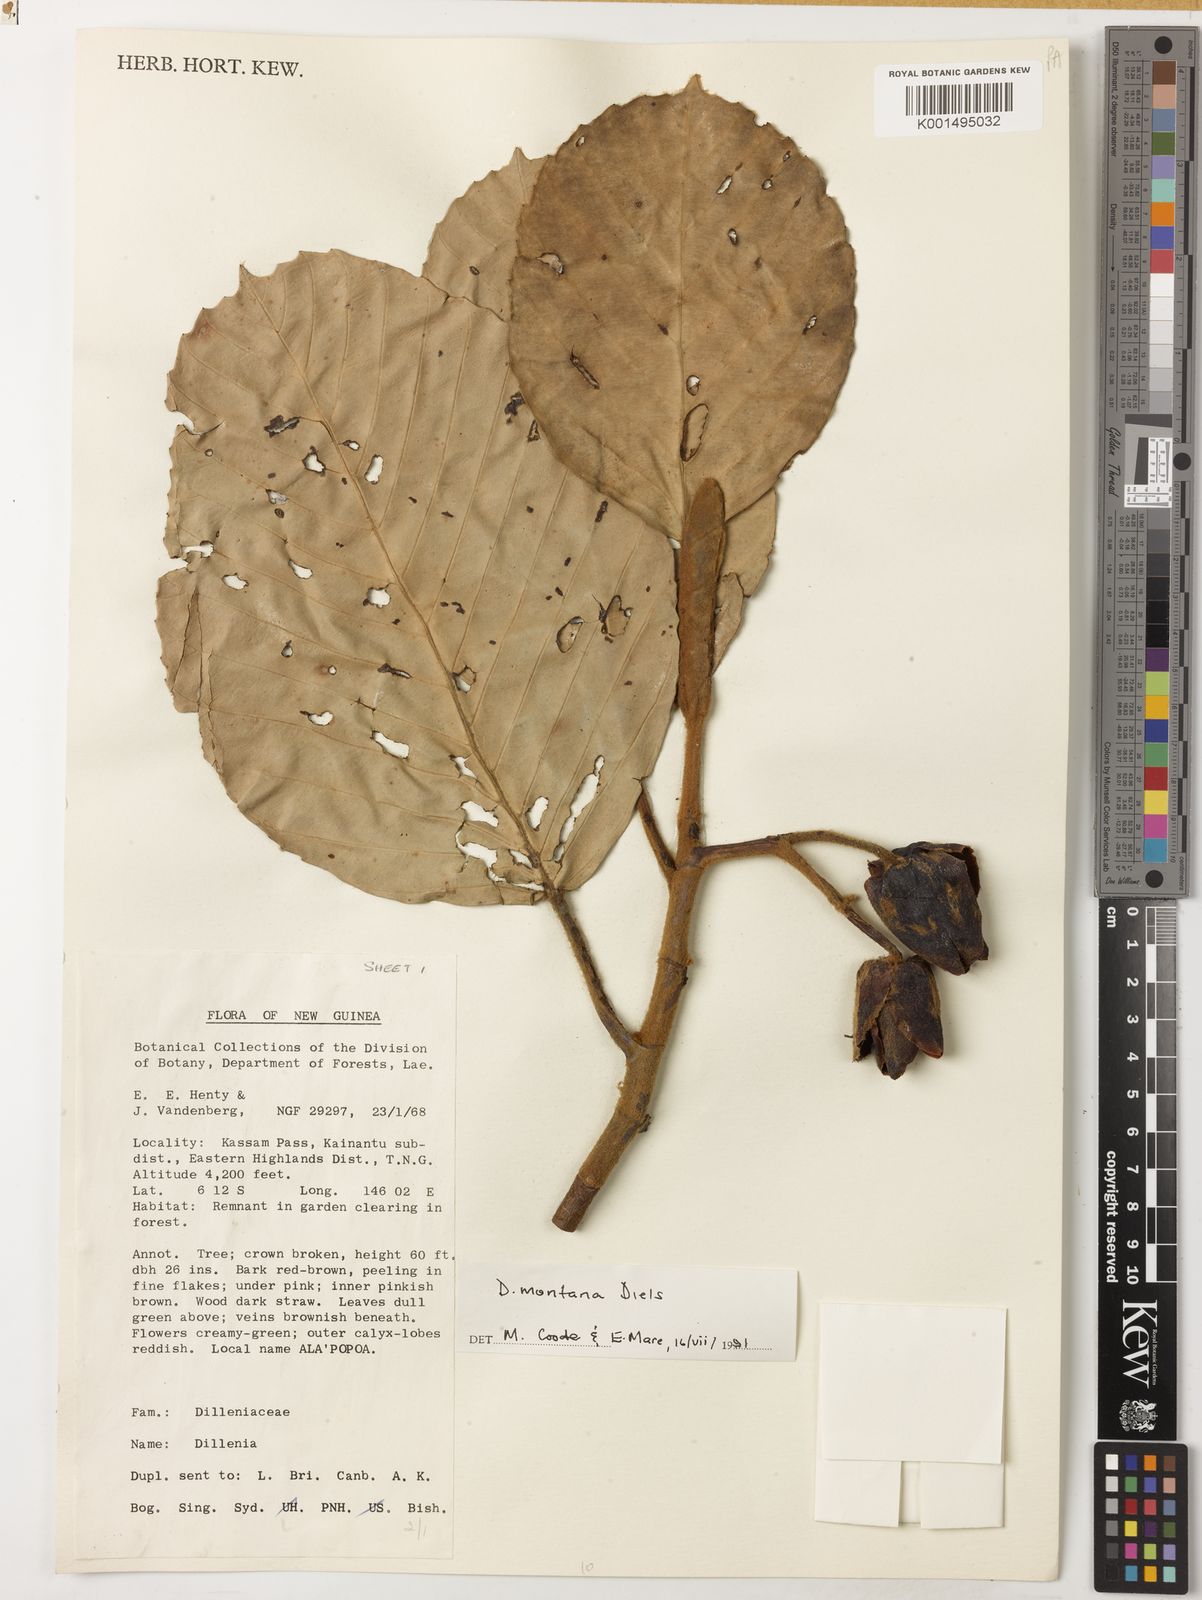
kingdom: Plantae
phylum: Tracheophyta
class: Magnoliopsida
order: Dilleniales
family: Dilleniaceae
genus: Dillenia
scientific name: Dillenia montana
